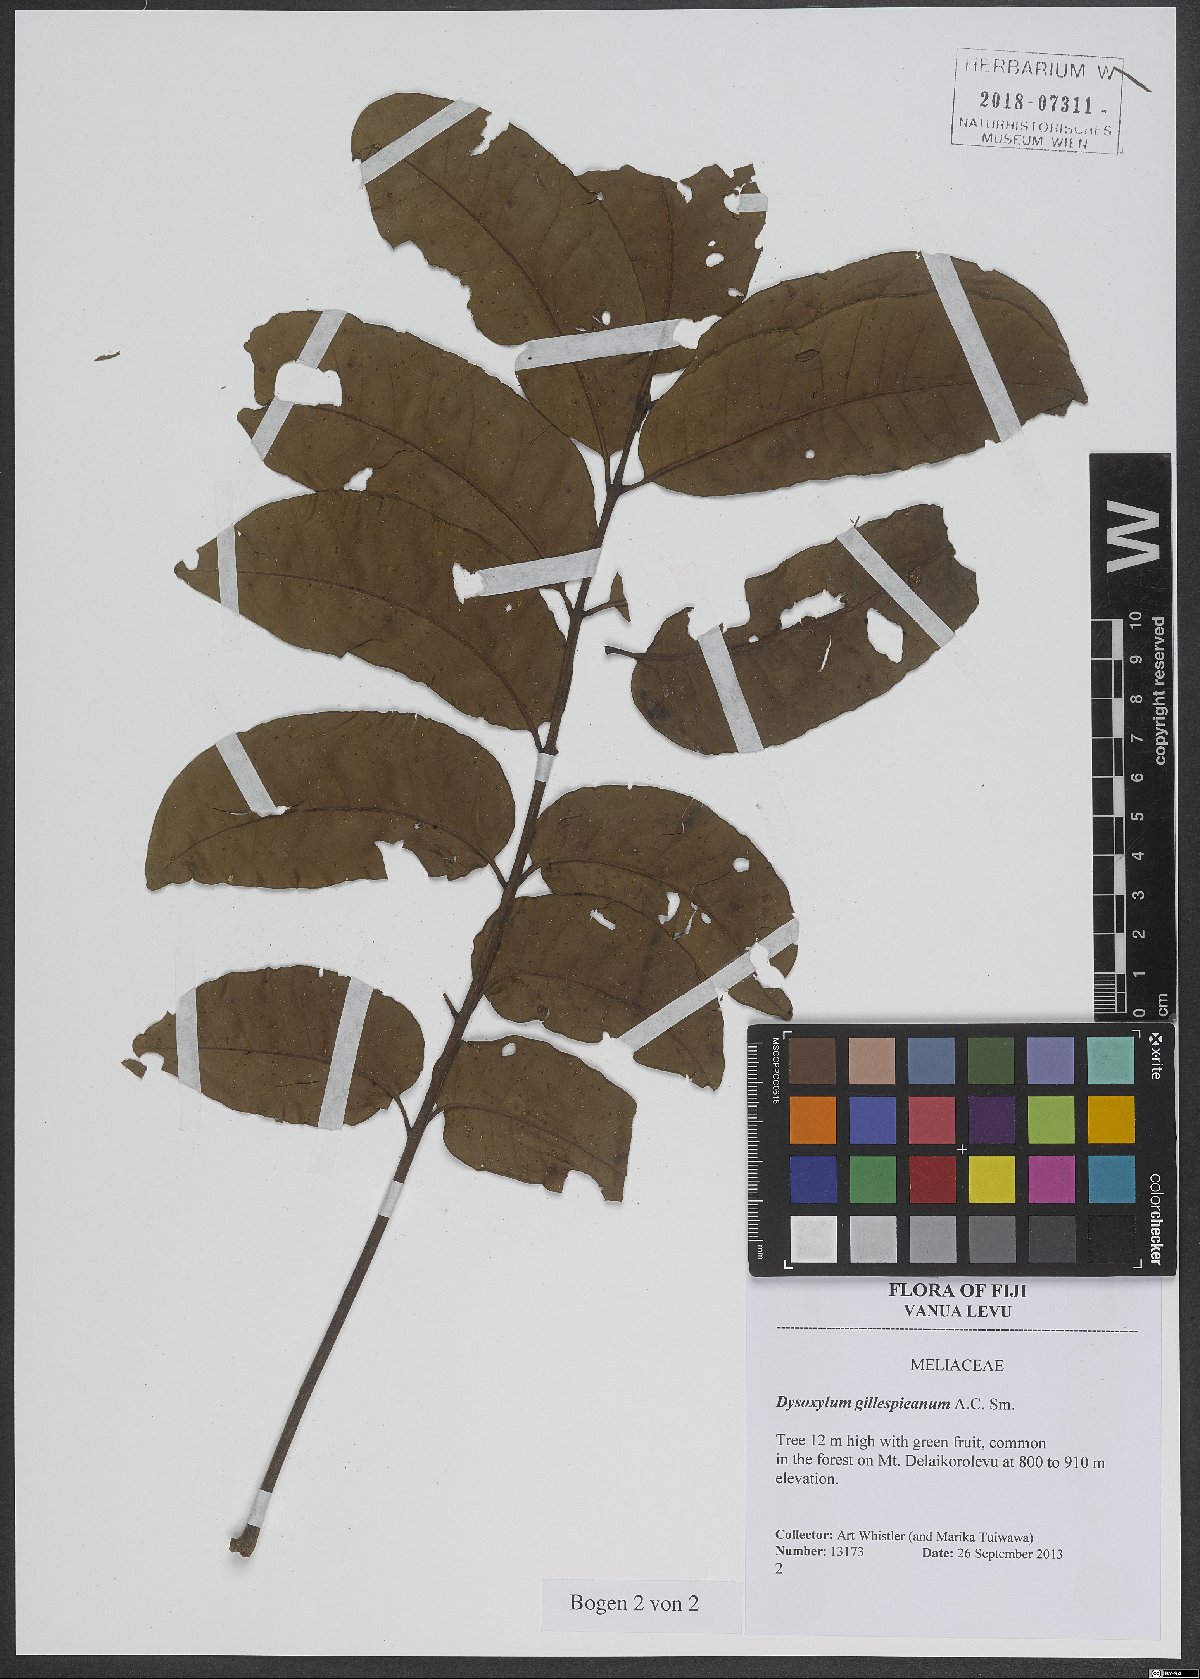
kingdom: Plantae
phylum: Tracheophyta
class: Magnoliopsida
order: Sapindales
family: Meliaceae
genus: Epicharis
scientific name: Epicharis gillespieana
